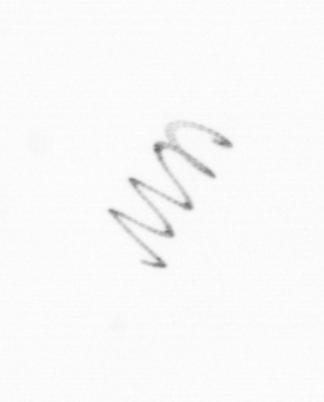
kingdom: Chromista
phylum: Ochrophyta
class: Bacillariophyceae
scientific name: Bacillariophyceae
